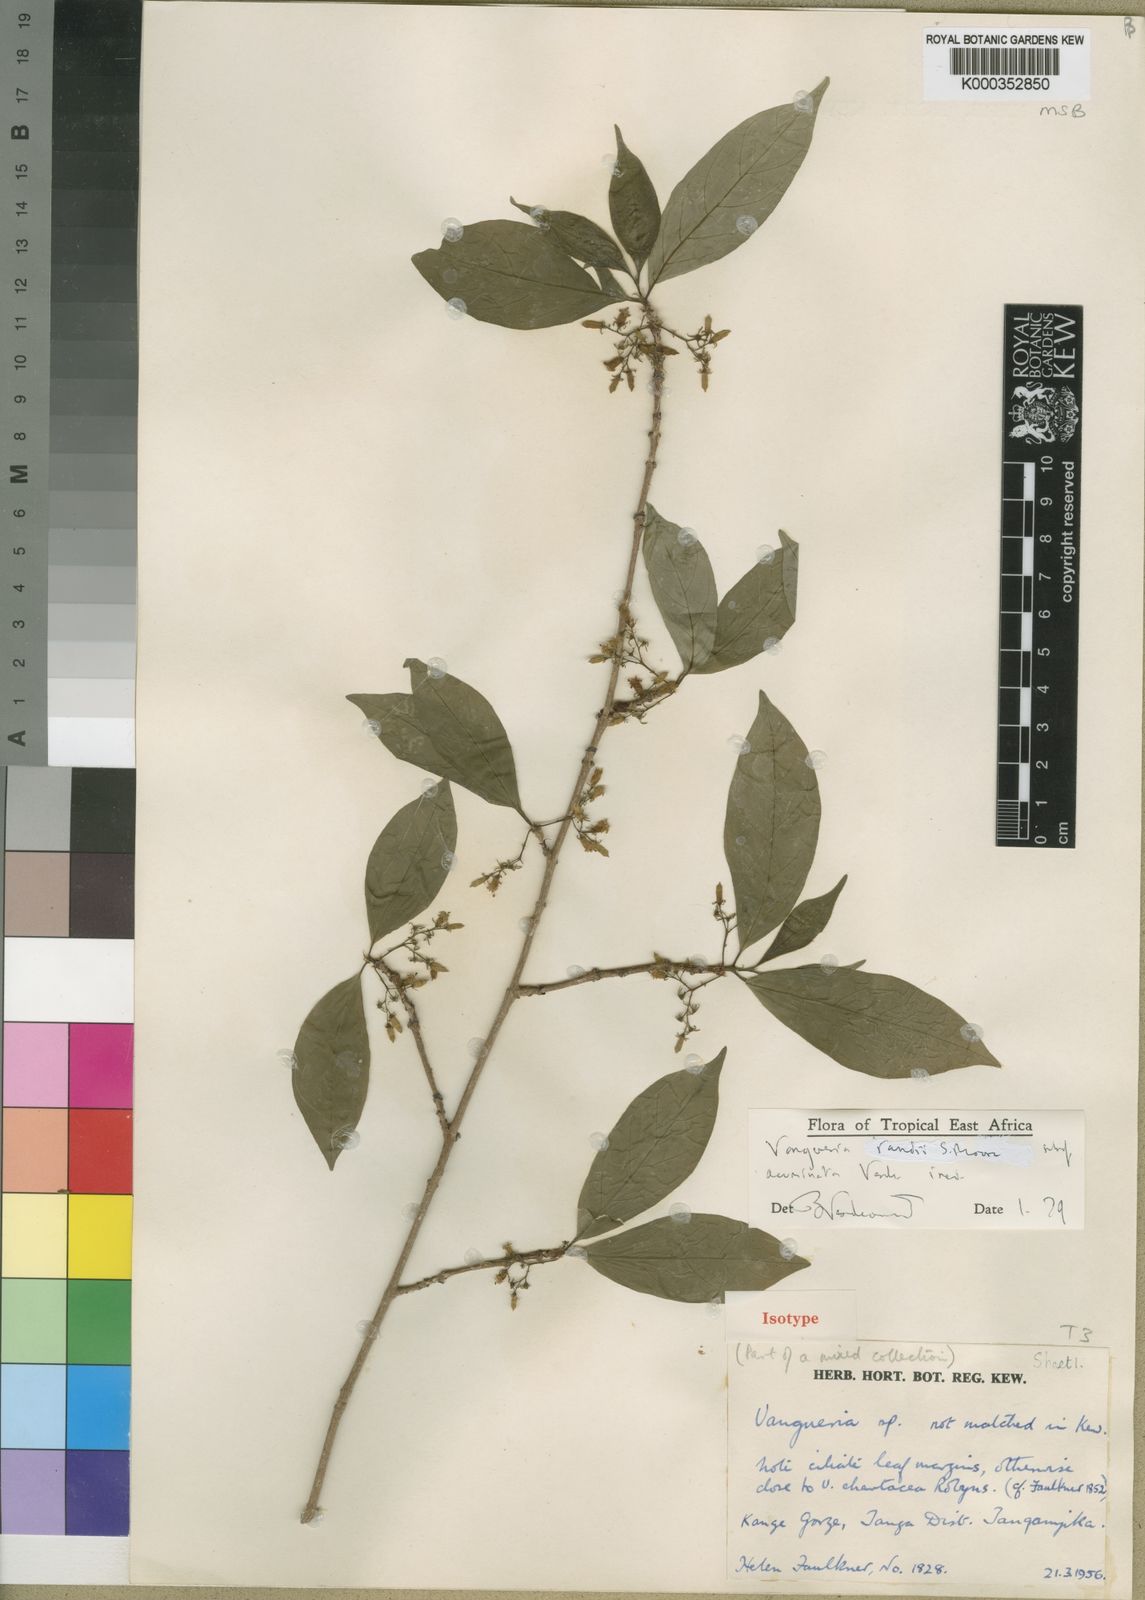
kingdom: Plantae
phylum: Tracheophyta
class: Magnoliopsida
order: Gentianales
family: Rubiaceae
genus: Vangueria
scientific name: Vangueria randii
